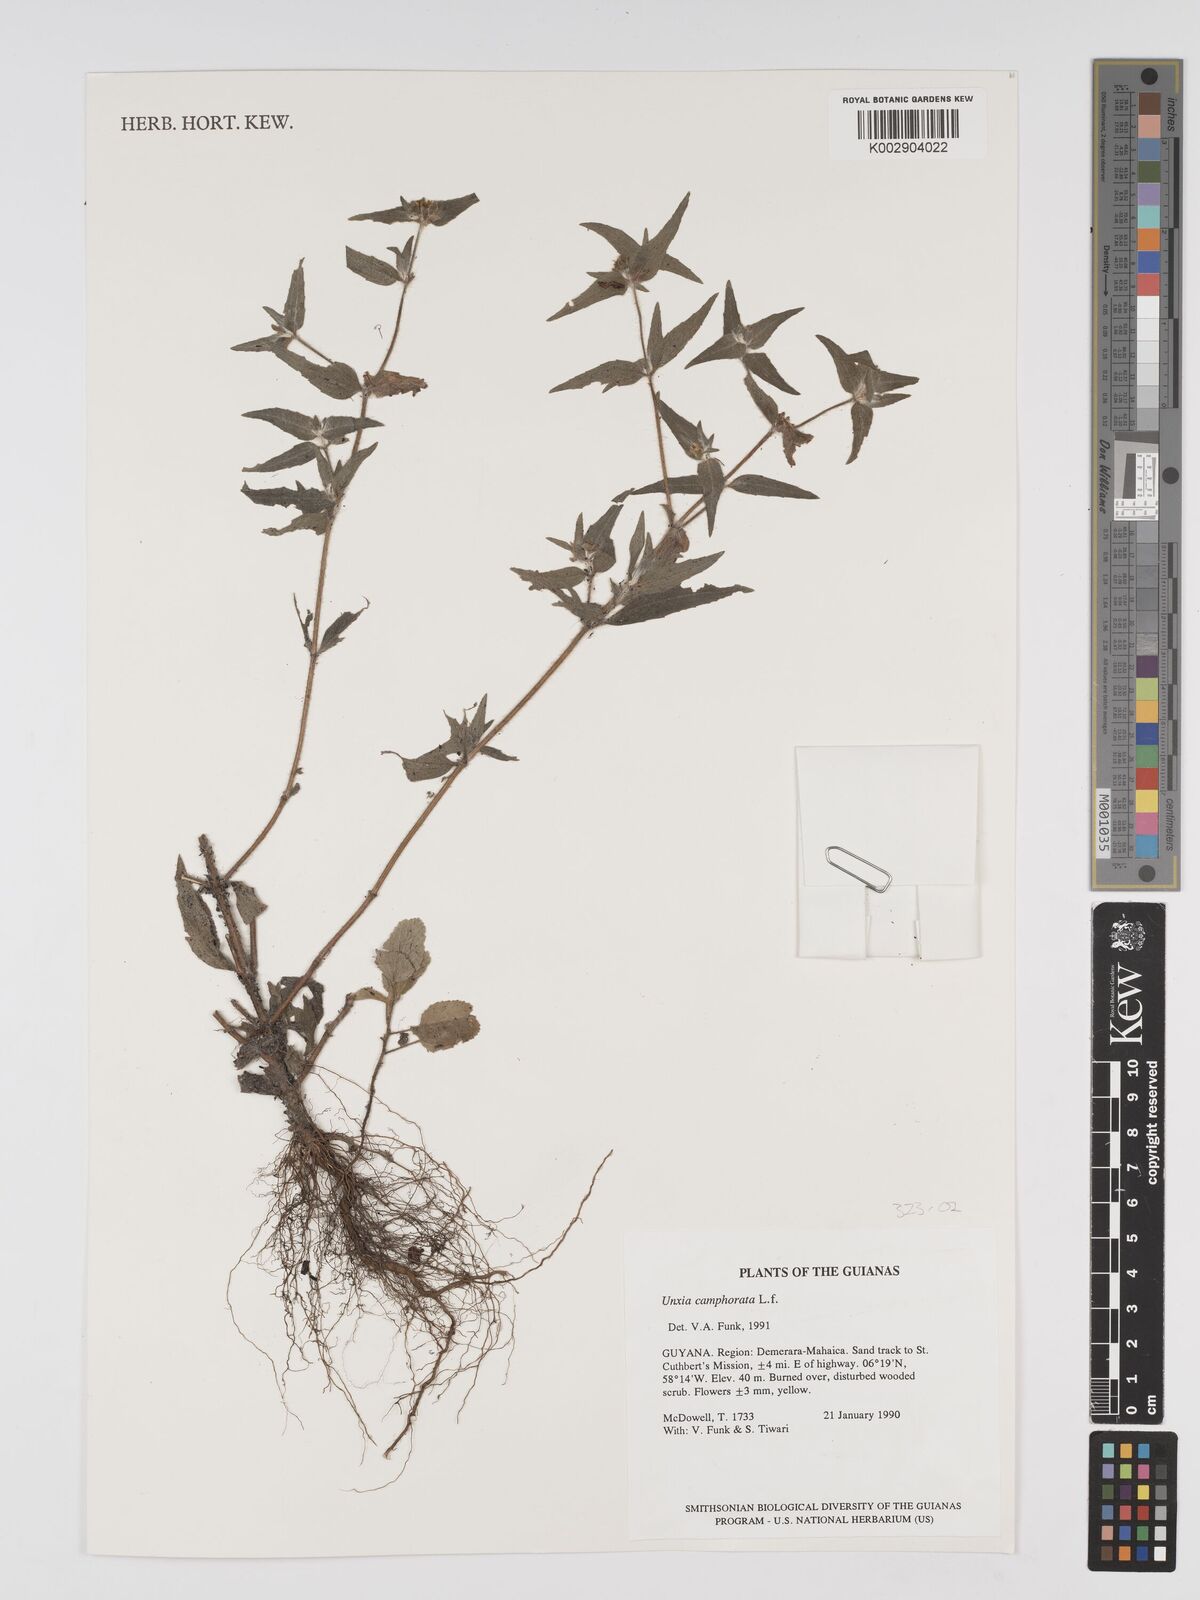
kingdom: Plantae
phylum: Tracheophyta
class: Magnoliopsida
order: Asterales
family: Asteraceae
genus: Unxia
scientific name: Unxia camphorata
